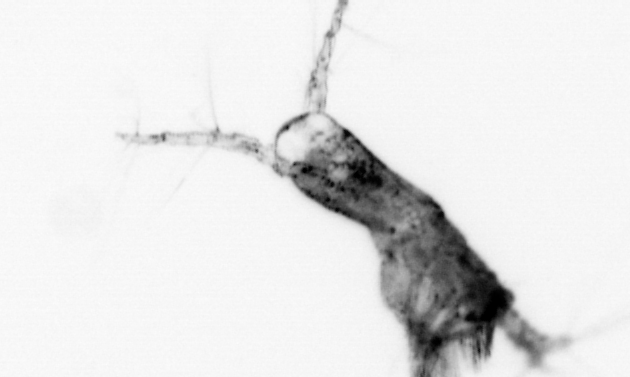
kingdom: Animalia
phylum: Arthropoda
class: Copepoda
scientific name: Copepoda
